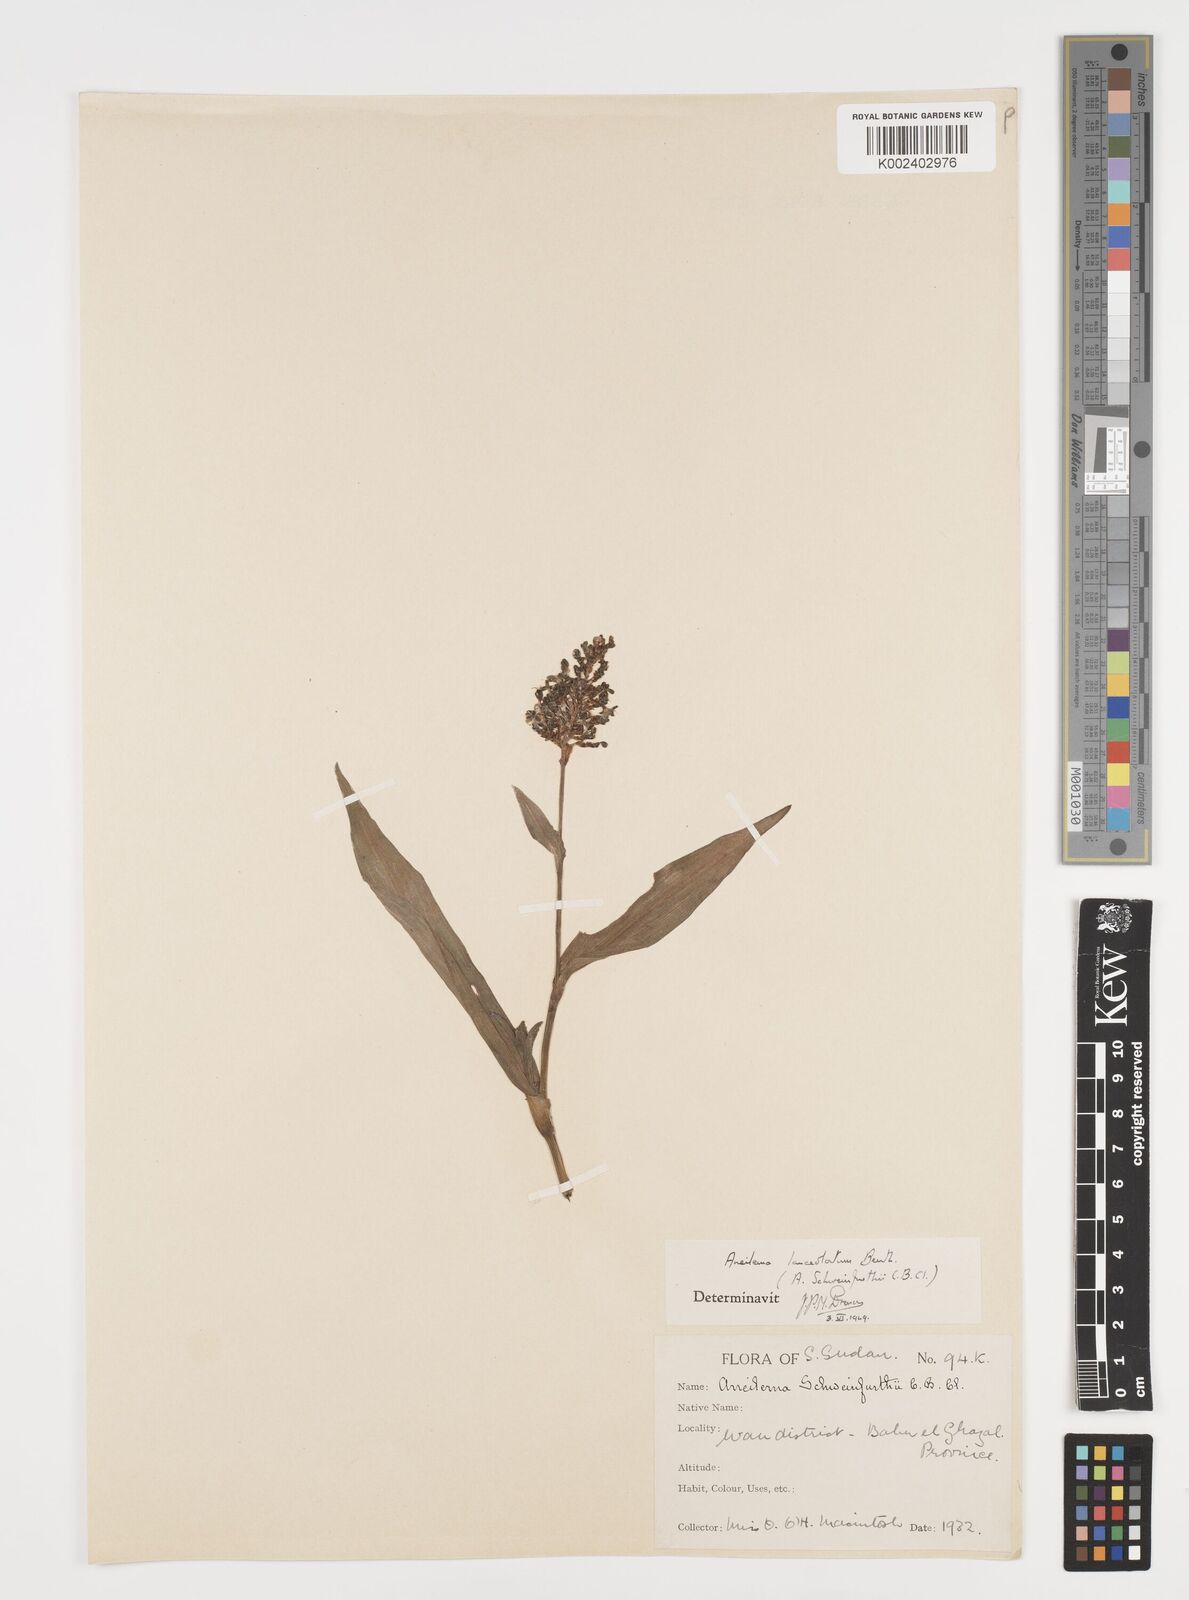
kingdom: Plantae
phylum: Tracheophyta
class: Liliopsida
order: Commelinales
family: Commelinaceae
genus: Aneilema
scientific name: Aneilema lanceolatum
